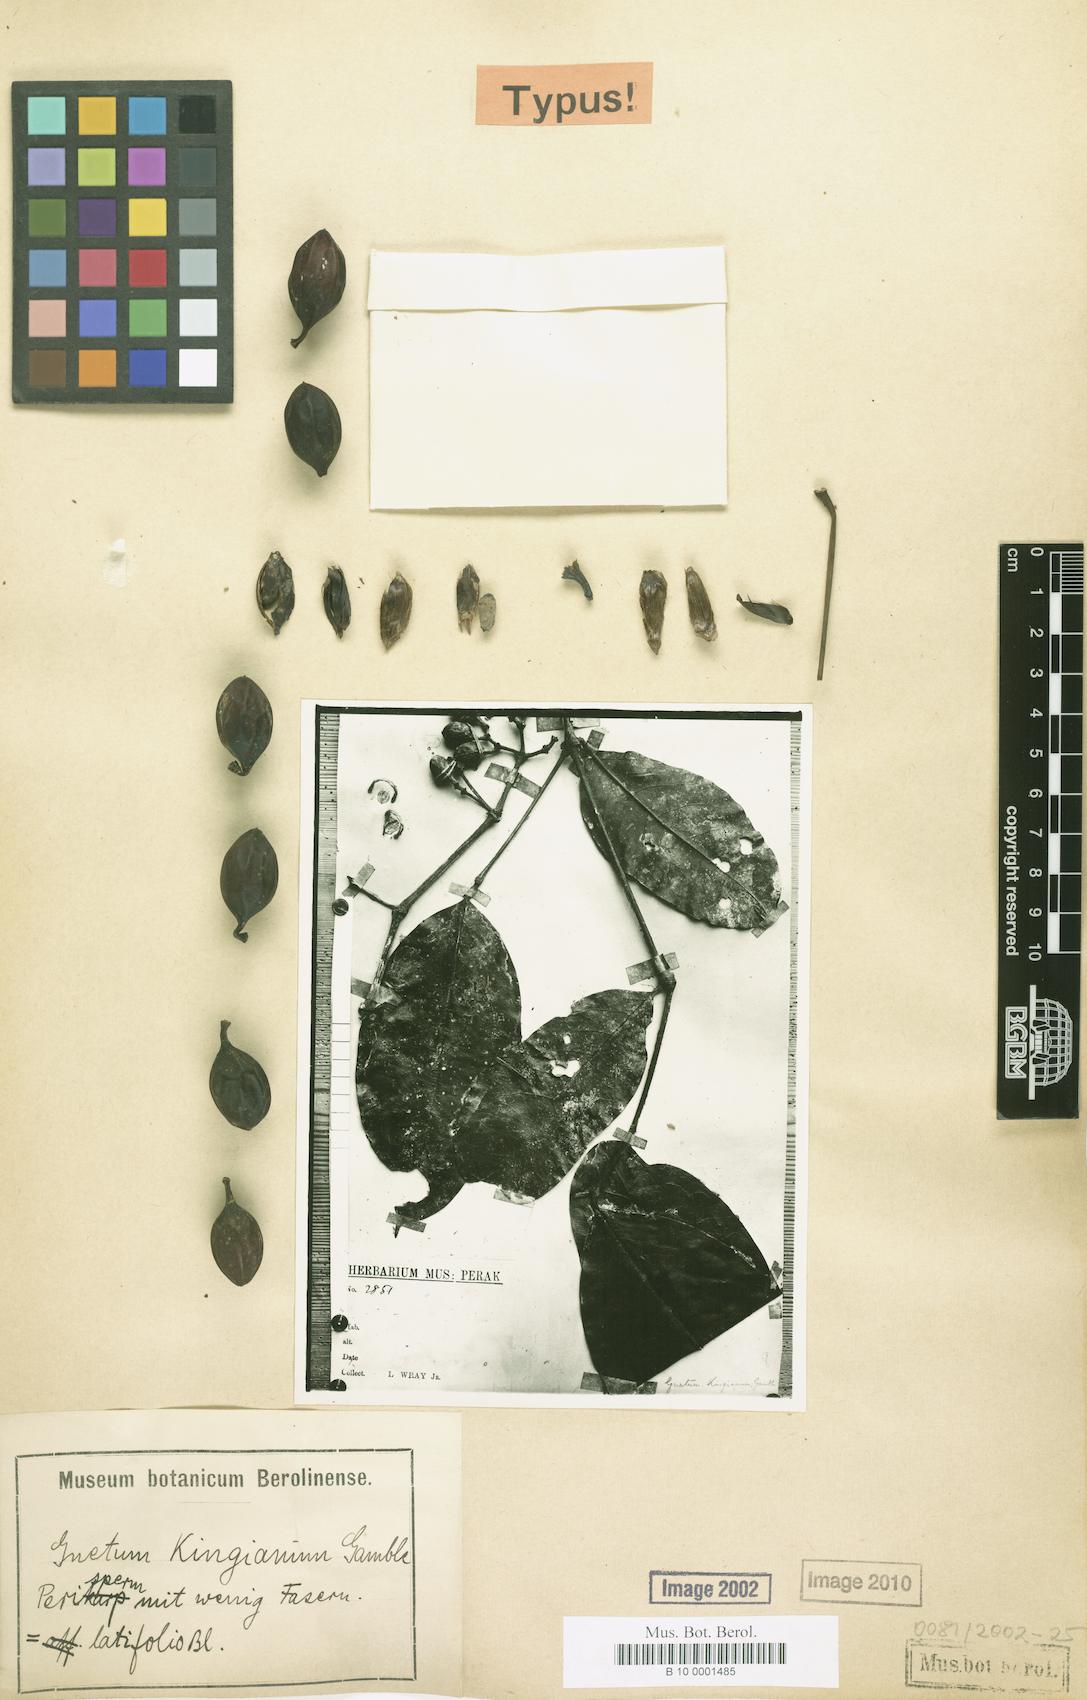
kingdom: Plantae
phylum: Tracheophyta
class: Gnetopsida
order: Gnetales
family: Gnetaceae
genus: Gnetum
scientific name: Gnetum latifolium
